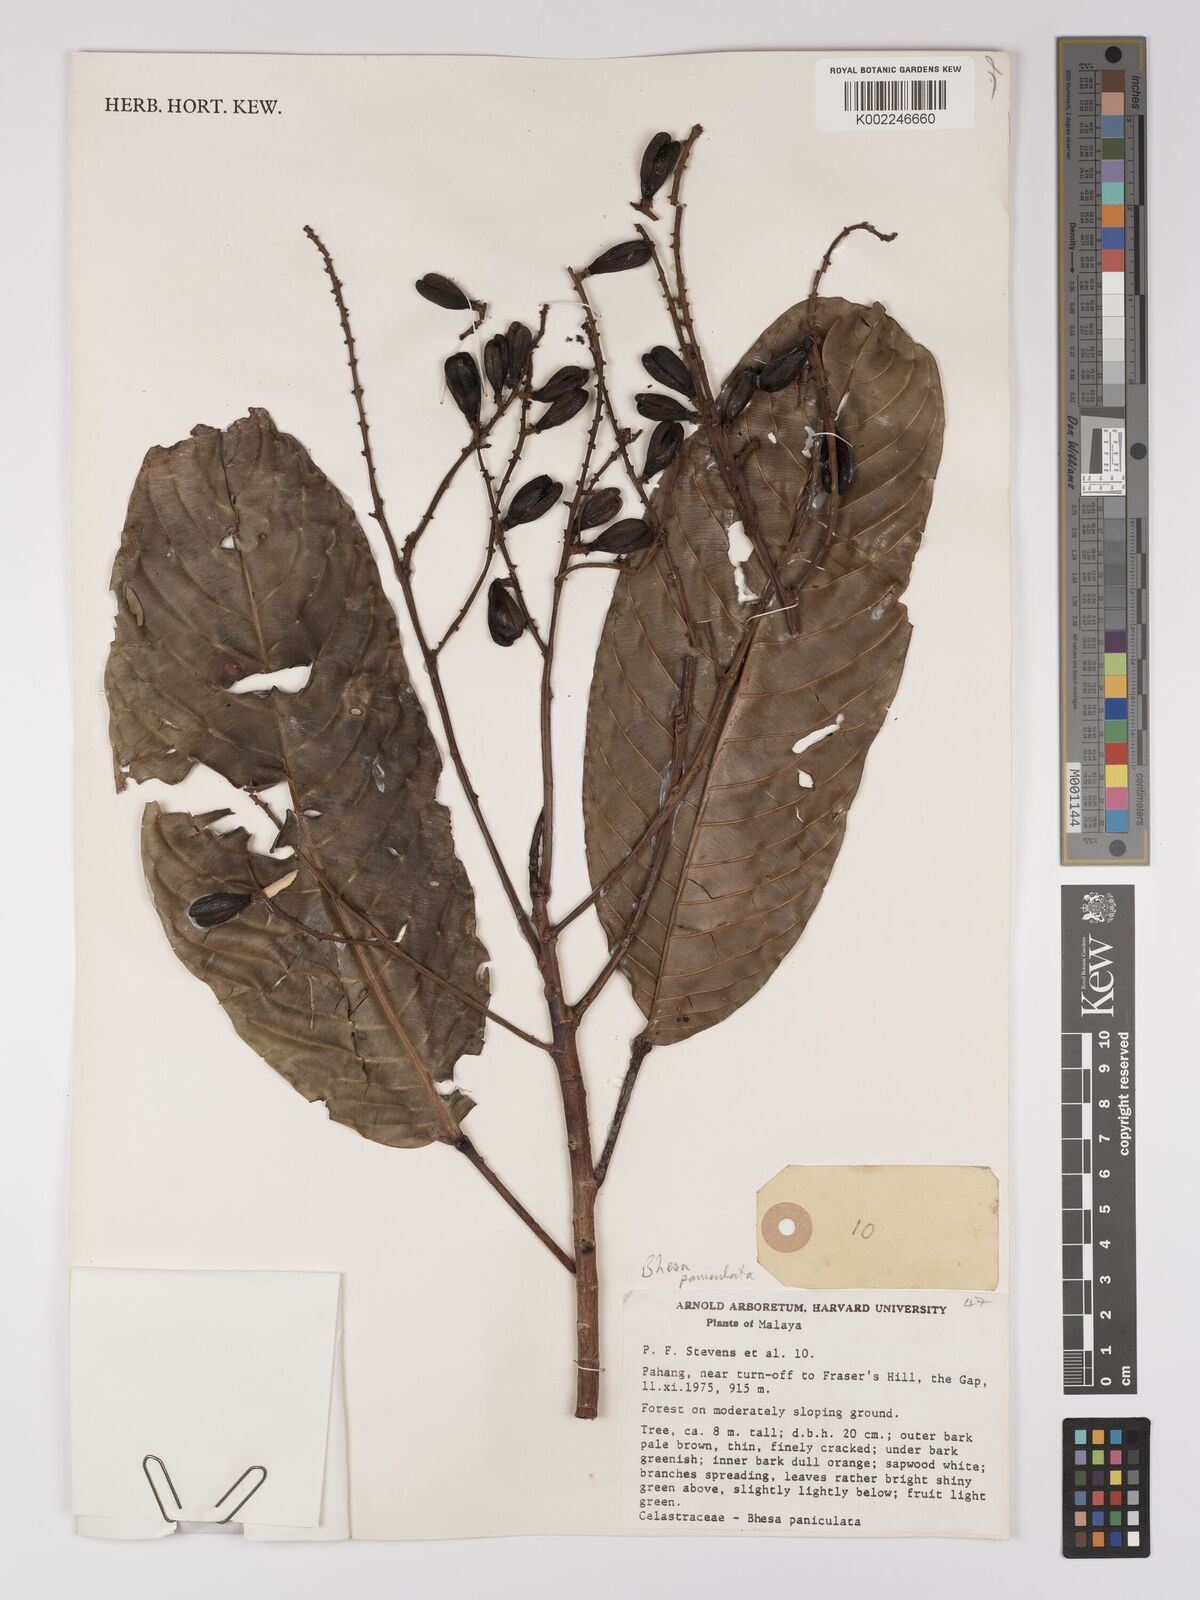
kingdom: Plantae
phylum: Tracheophyta
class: Magnoliopsida
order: Malpighiales
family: Centroplacaceae
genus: Bhesa
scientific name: Bhesa paniculata
